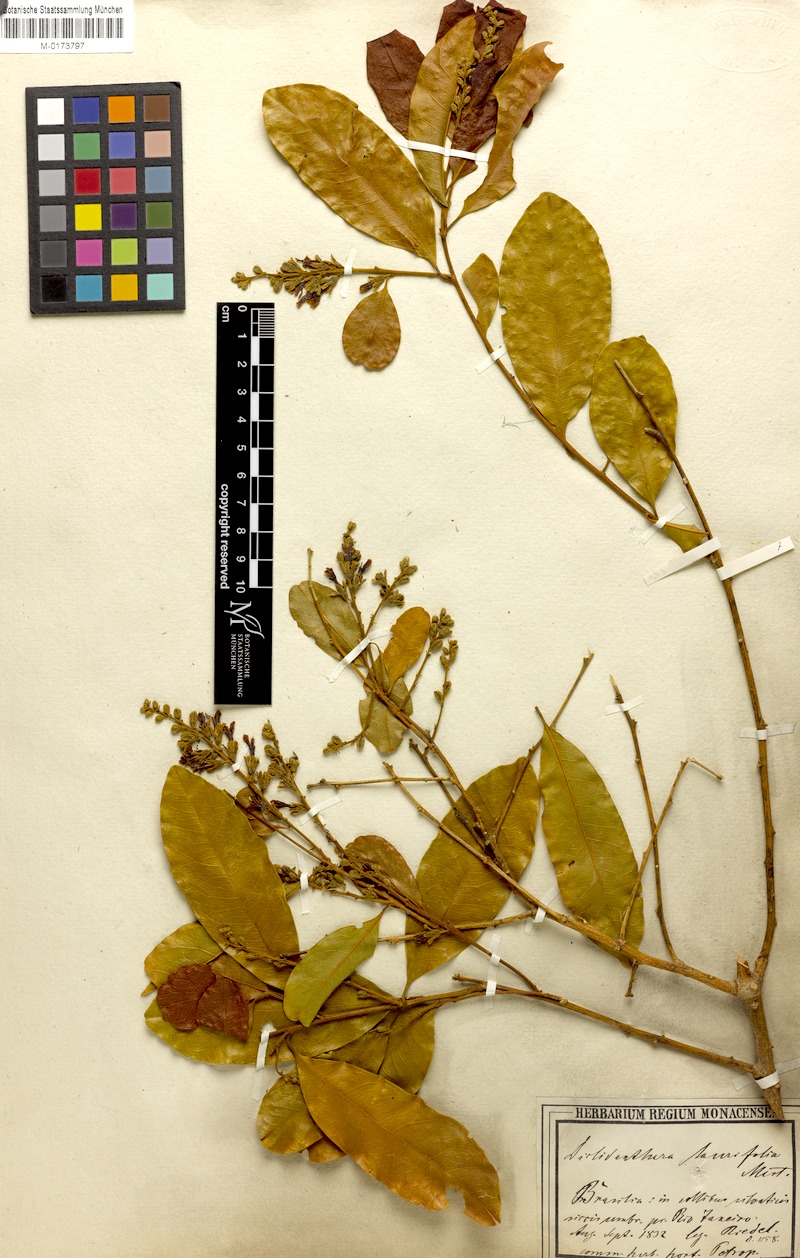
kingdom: Plantae
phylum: Tracheophyta
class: Magnoliopsida
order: Fabales
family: Polygalaceae
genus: Diclidanthera
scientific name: Diclidanthera laurifolia
